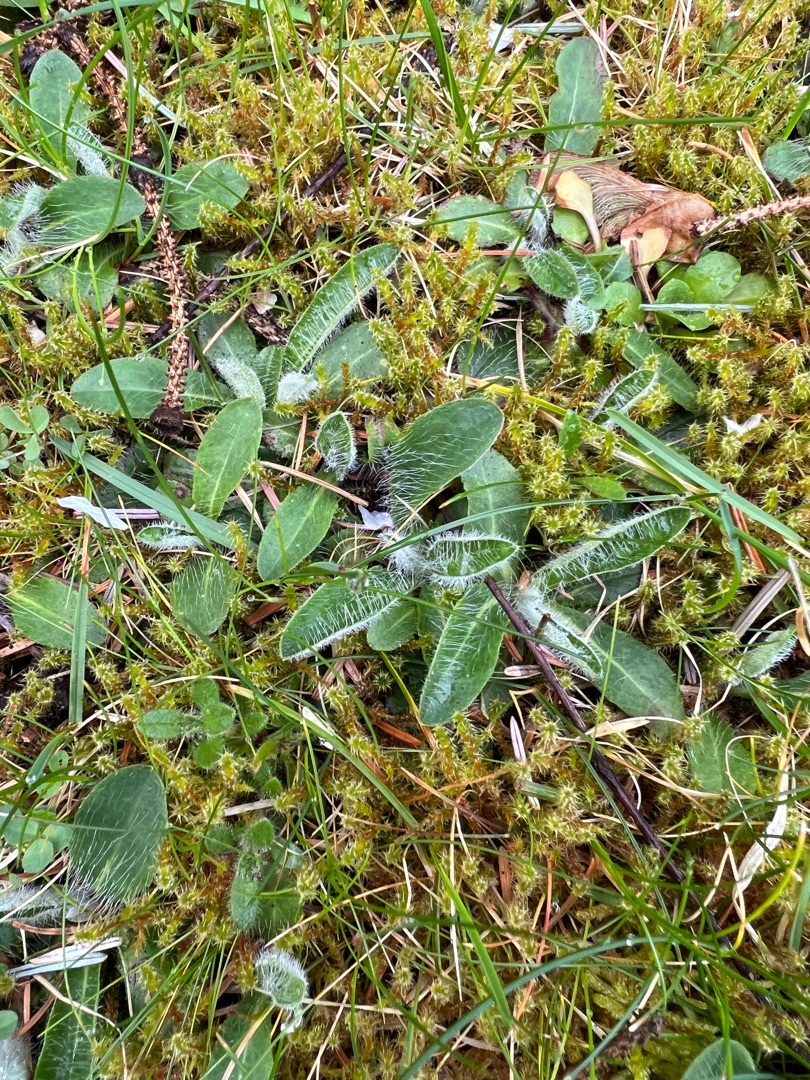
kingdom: Plantae
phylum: Tracheophyta
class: Magnoliopsida
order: Asterales
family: Asteraceae
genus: Pilosella
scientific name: Pilosella officinarum
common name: Håret høgeurt
